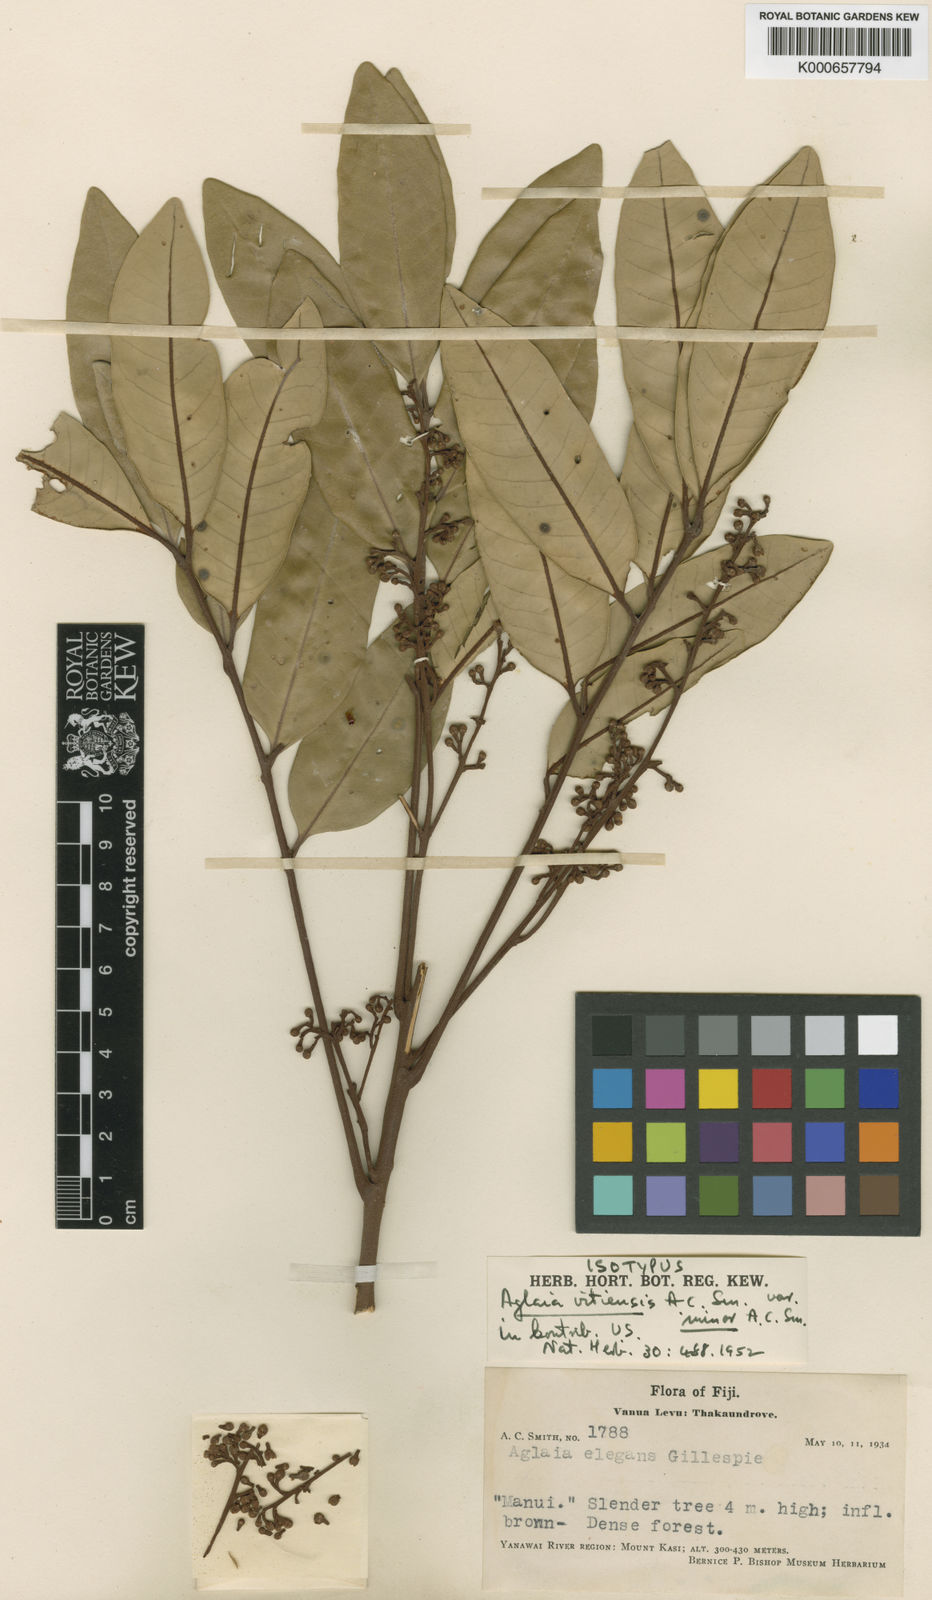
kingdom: Plantae
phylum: Tracheophyta
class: Magnoliopsida
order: Sapindales
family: Meliaceae
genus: Aglaia
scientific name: Aglaia vitiensis
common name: Lindiyango
